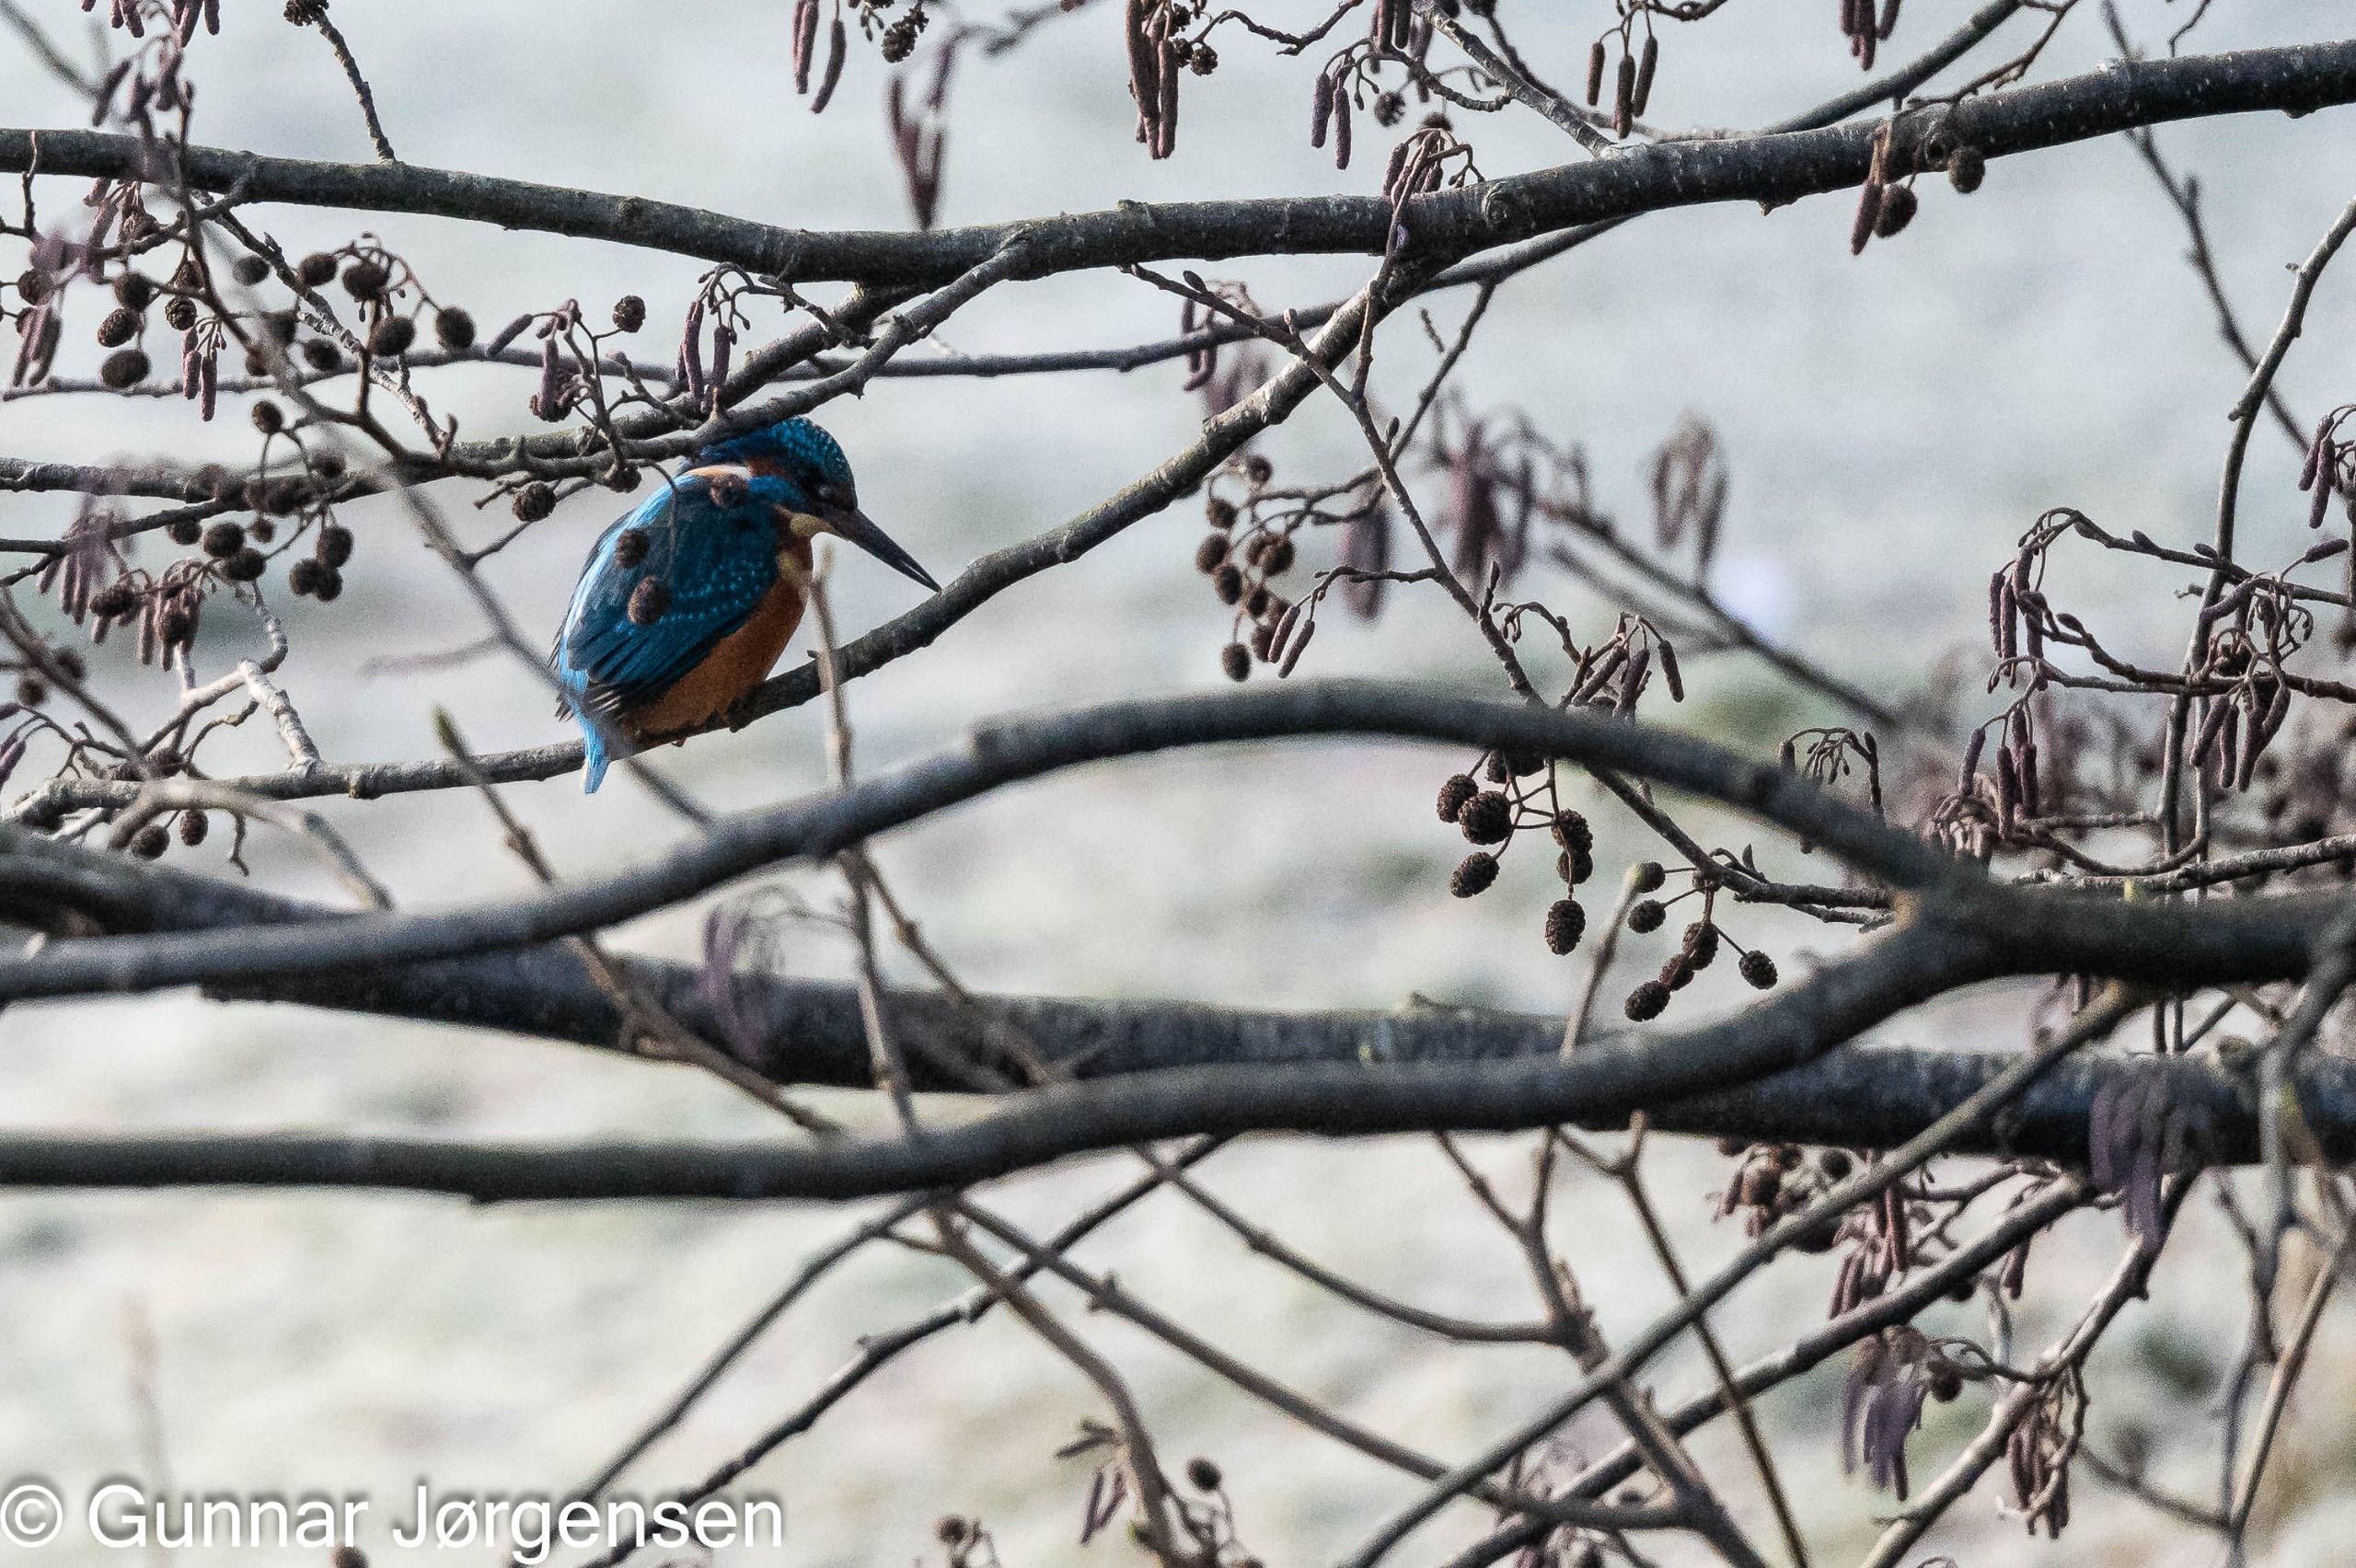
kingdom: Animalia
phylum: Chordata
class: Aves
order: Coraciiformes
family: Alcedinidae
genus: Alcedo
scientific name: Alcedo atthis
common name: Isfugl
